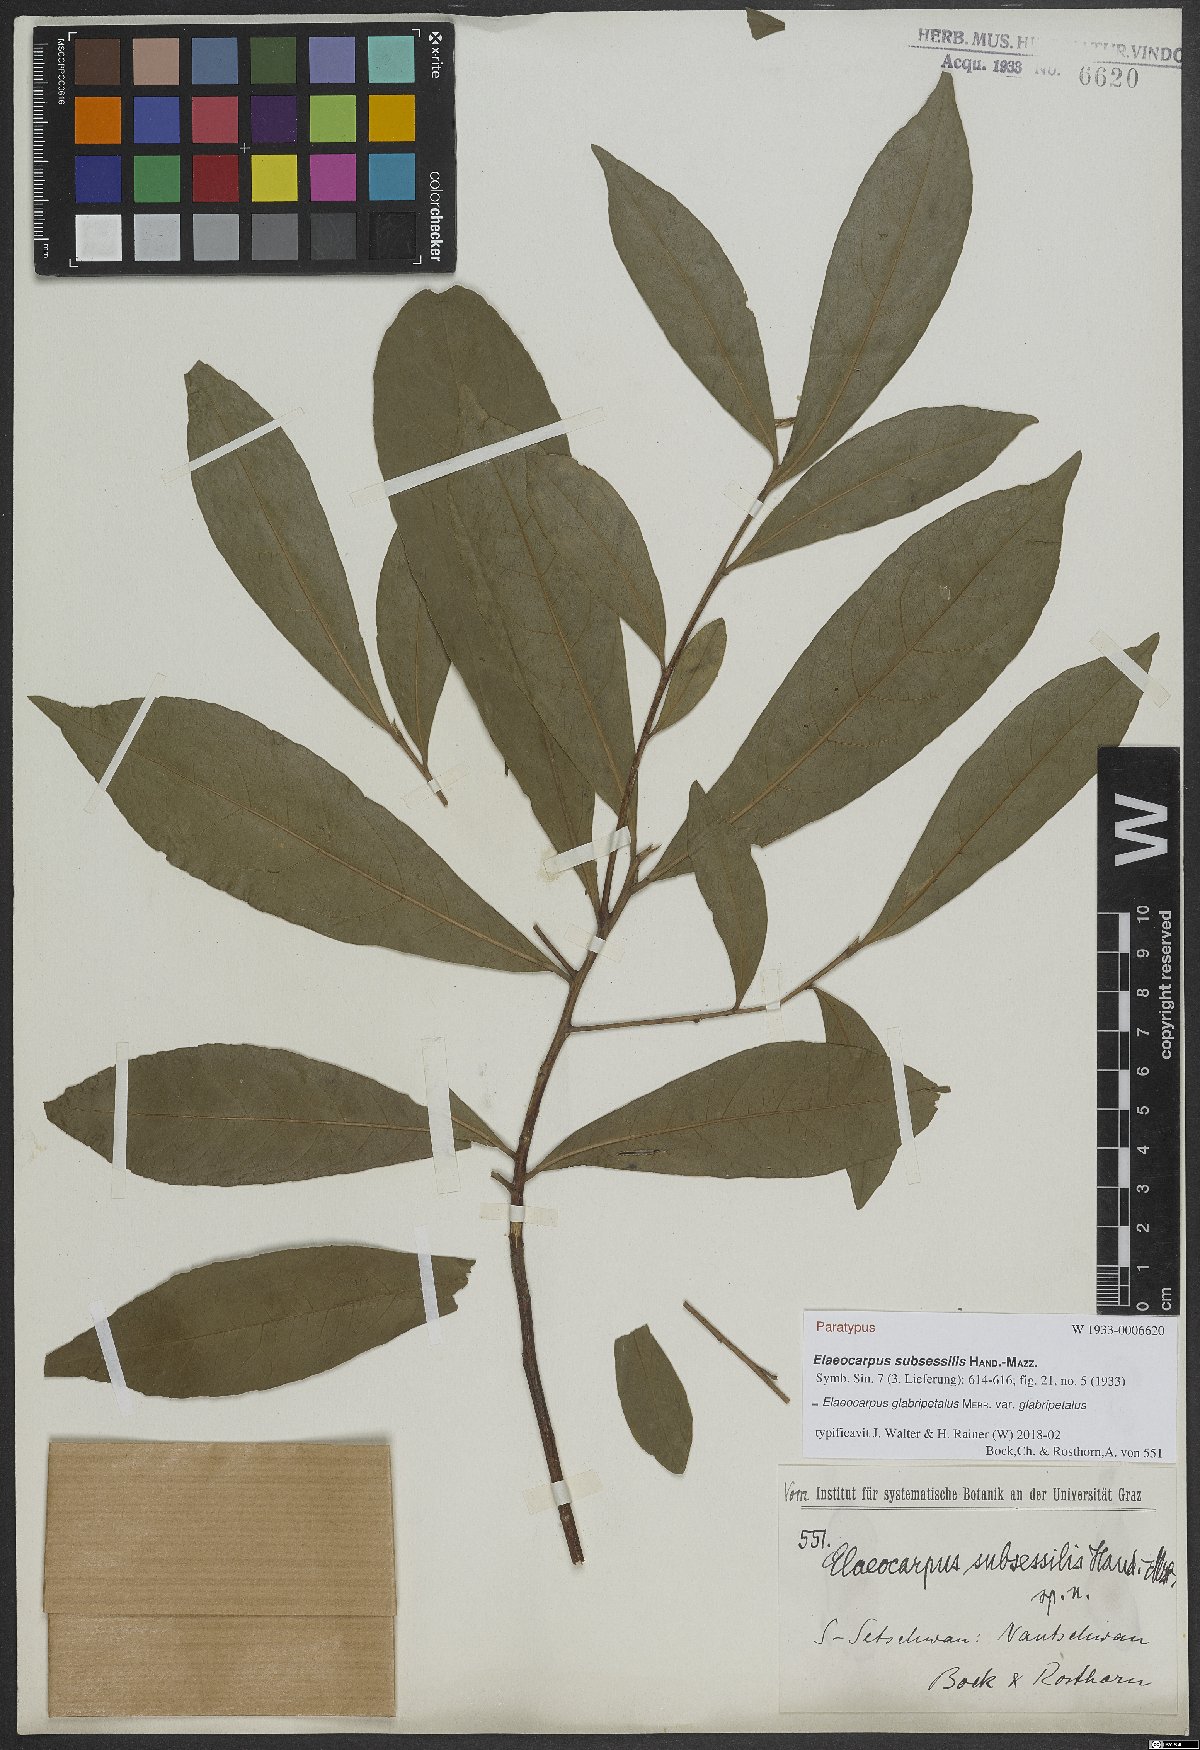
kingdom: Plantae
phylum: Tracheophyta
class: Magnoliopsida
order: Oxalidales
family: Elaeocarpaceae
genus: Elaeocarpus
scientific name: Elaeocarpus glabripetalus
